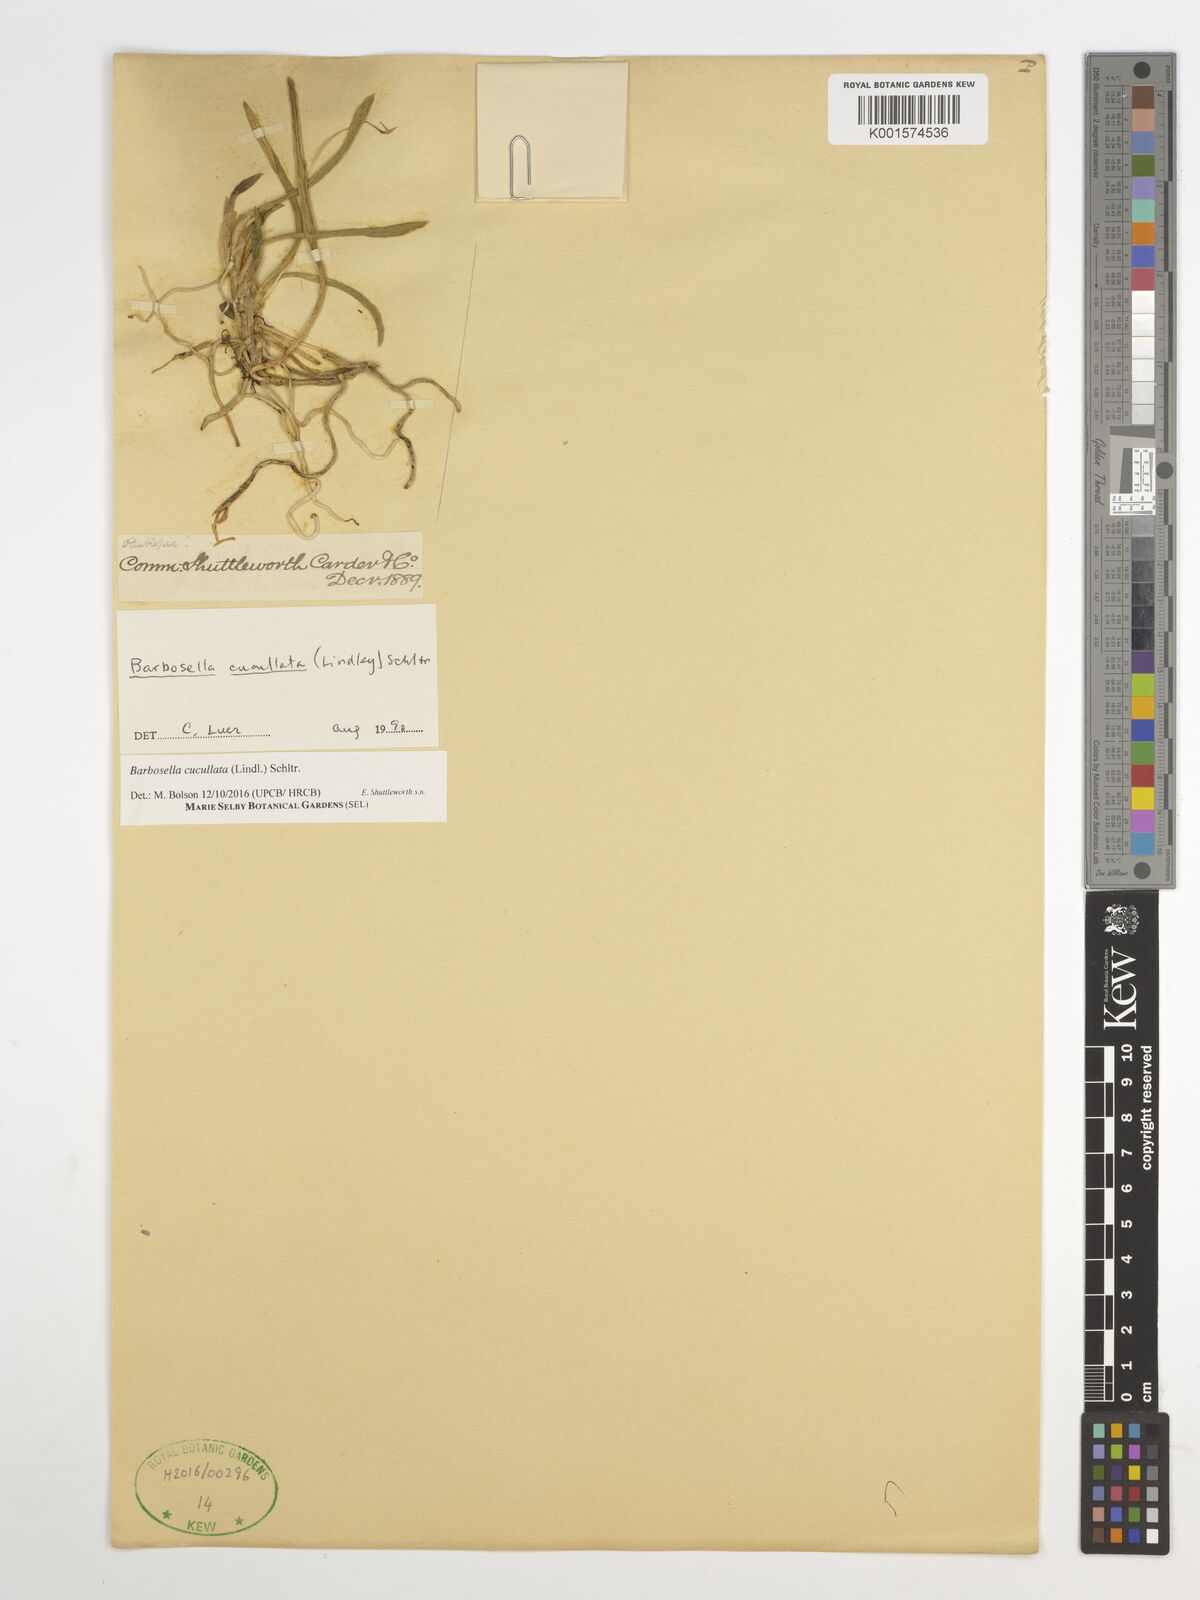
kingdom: Plantae
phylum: Tracheophyta
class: Liliopsida
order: Asparagales
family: Orchidaceae
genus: Barbosella
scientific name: Barbosella cucullata
